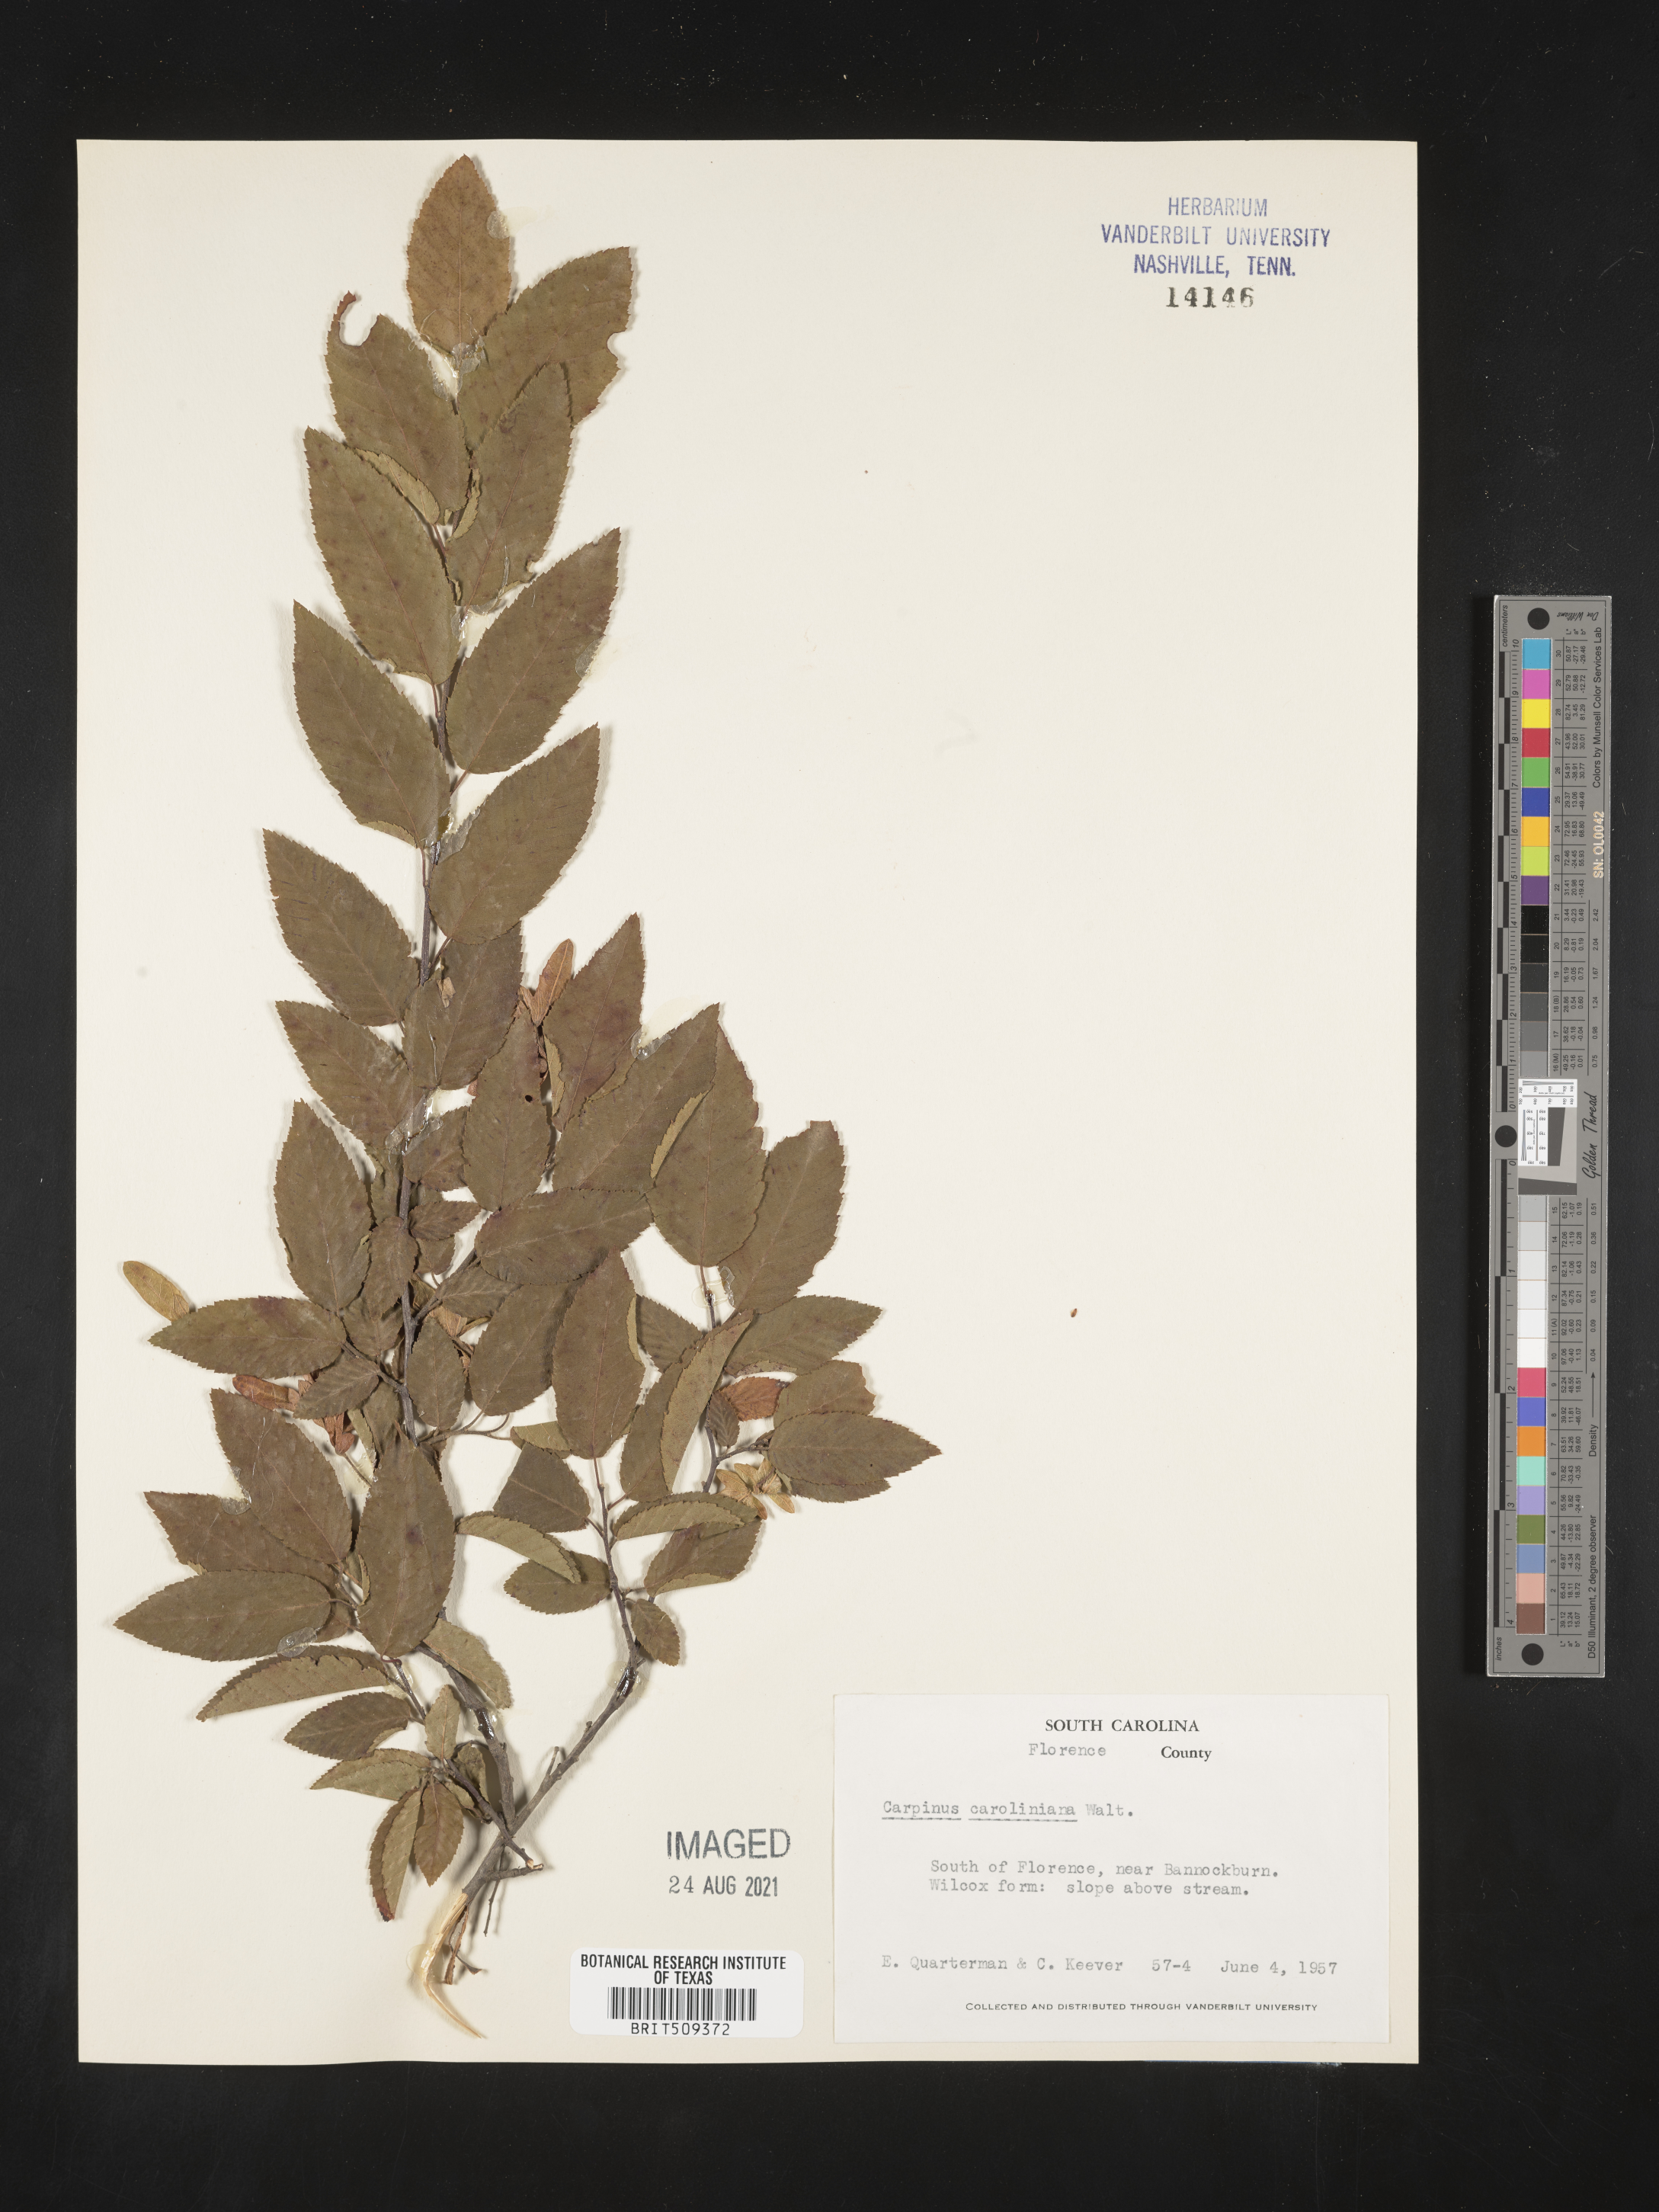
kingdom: Plantae
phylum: Tracheophyta
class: Magnoliopsida
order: Fagales
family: Betulaceae
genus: Carpinus
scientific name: Carpinus caroliniana
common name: American hornbeam
